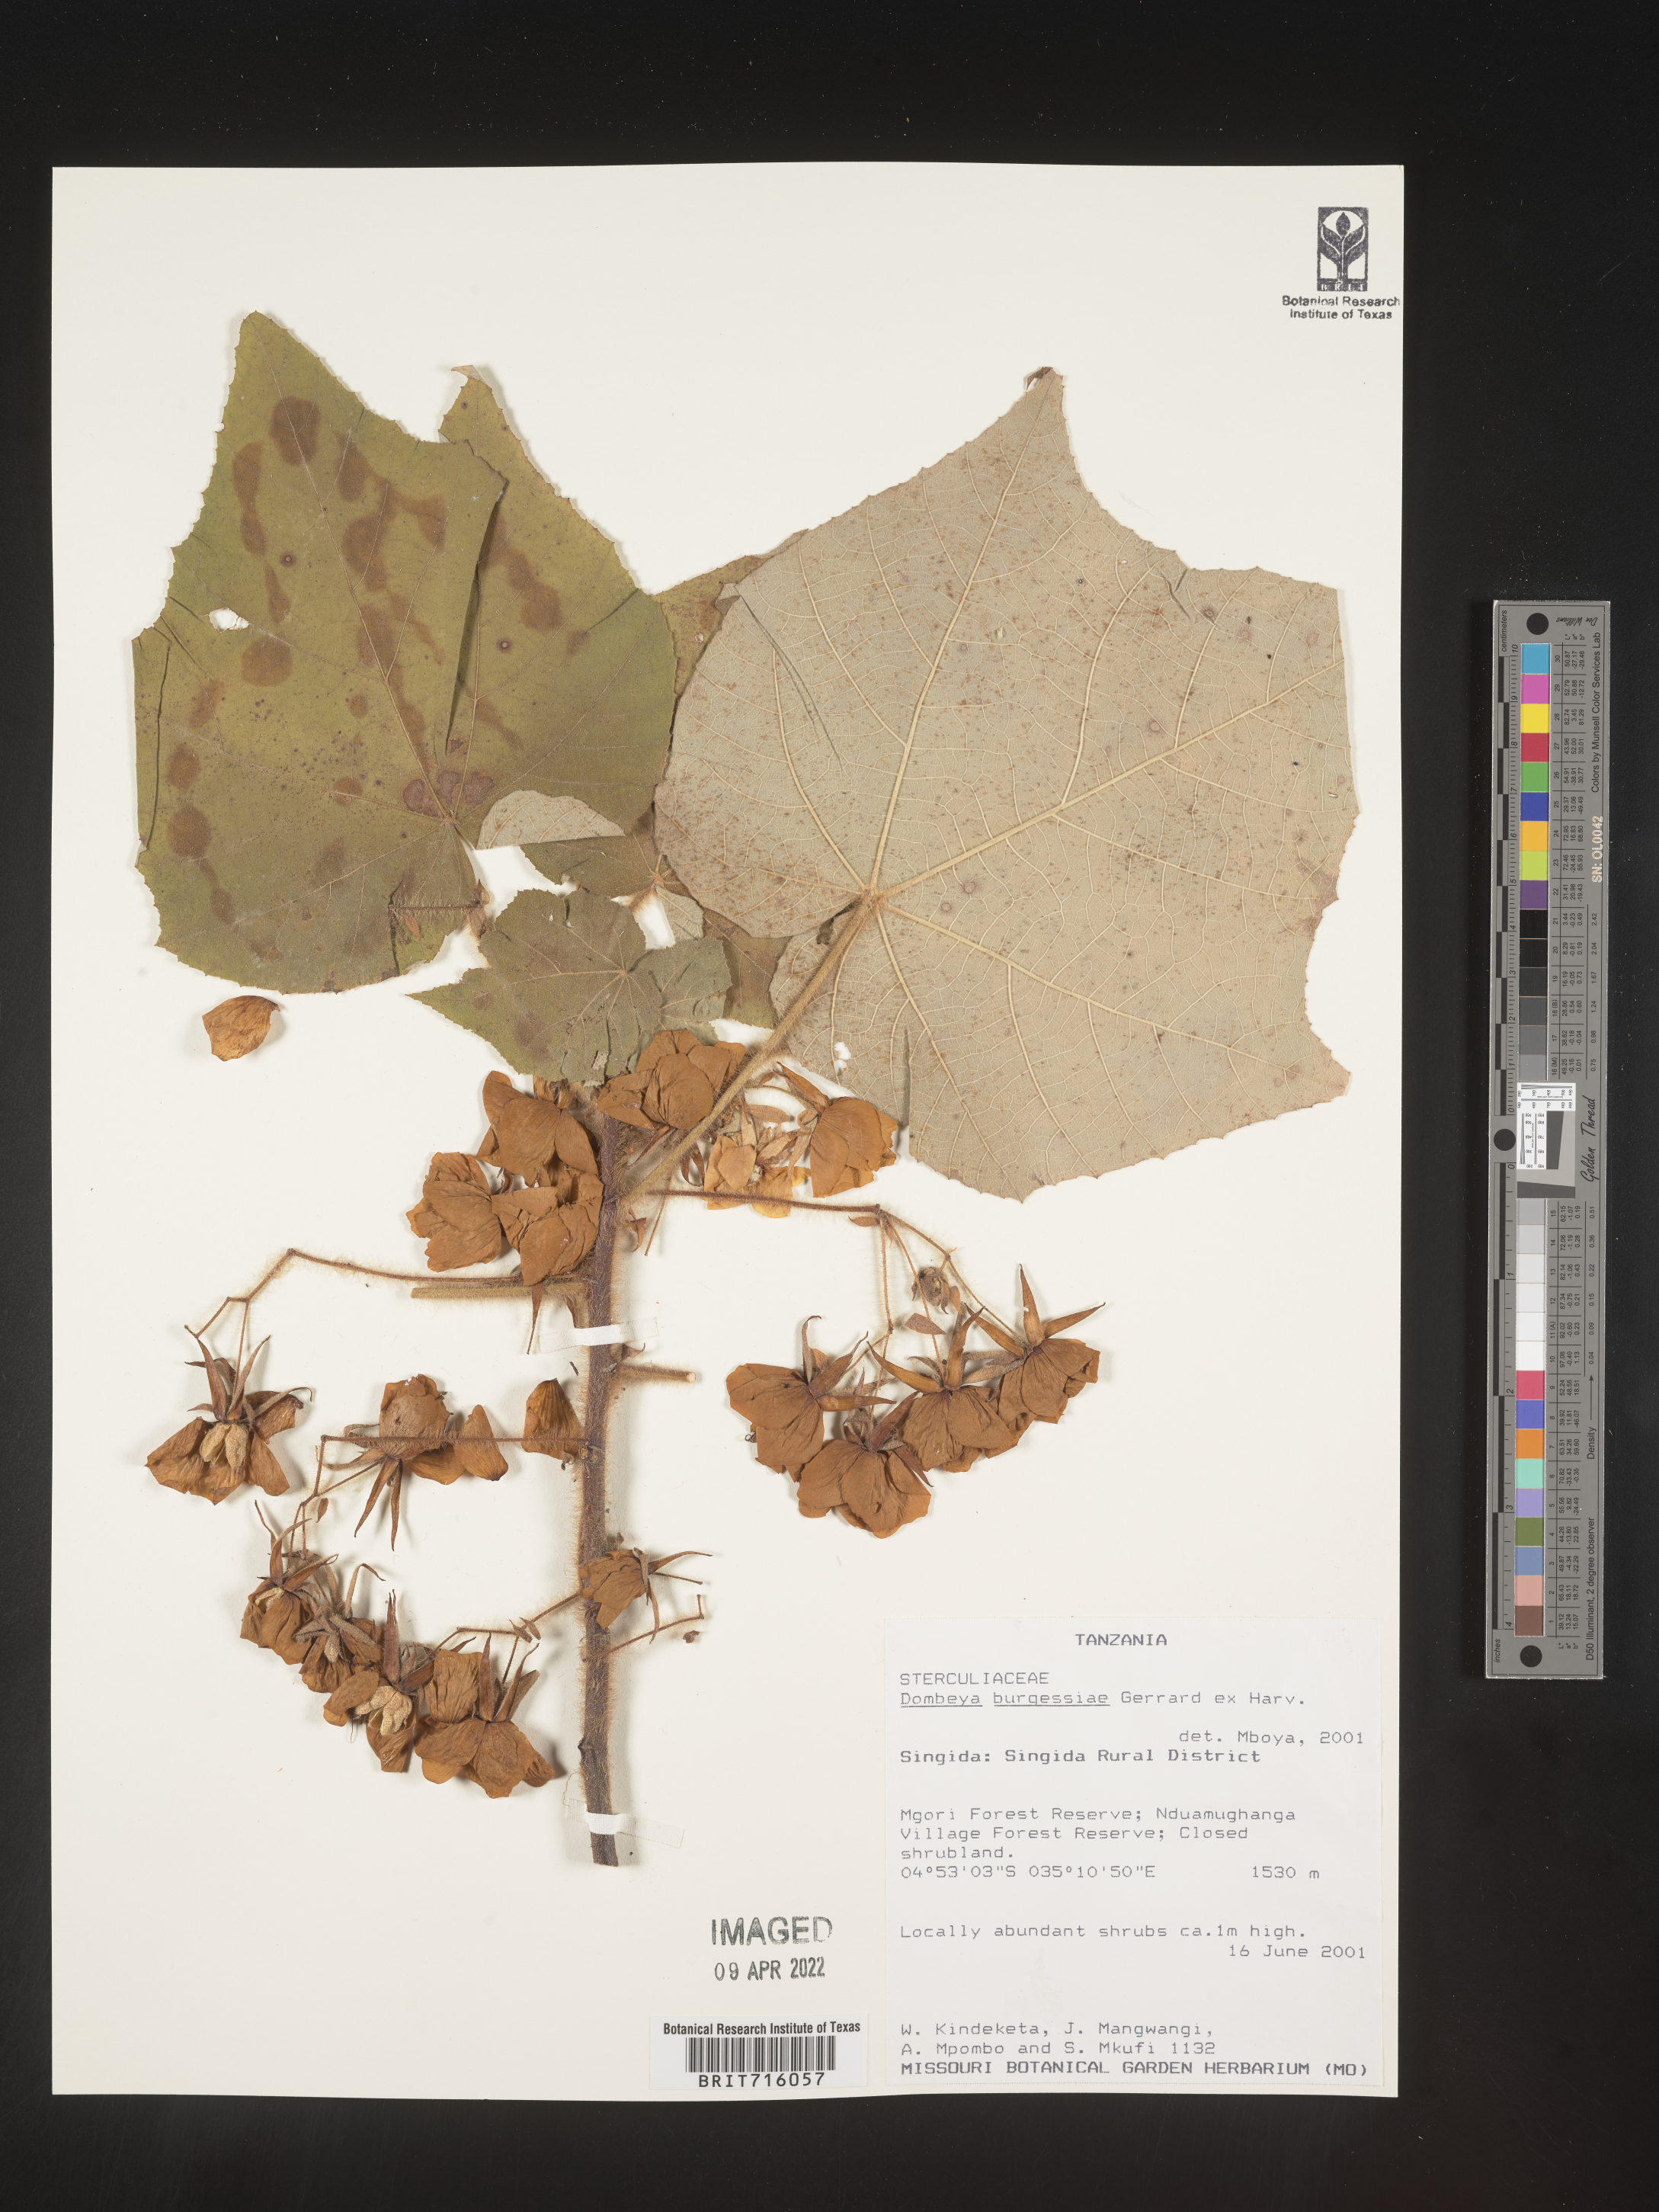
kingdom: Plantae
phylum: Tracheophyta
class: Magnoliopsida
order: Malvales
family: Malvaceae
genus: Dombeya
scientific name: Dombeya
